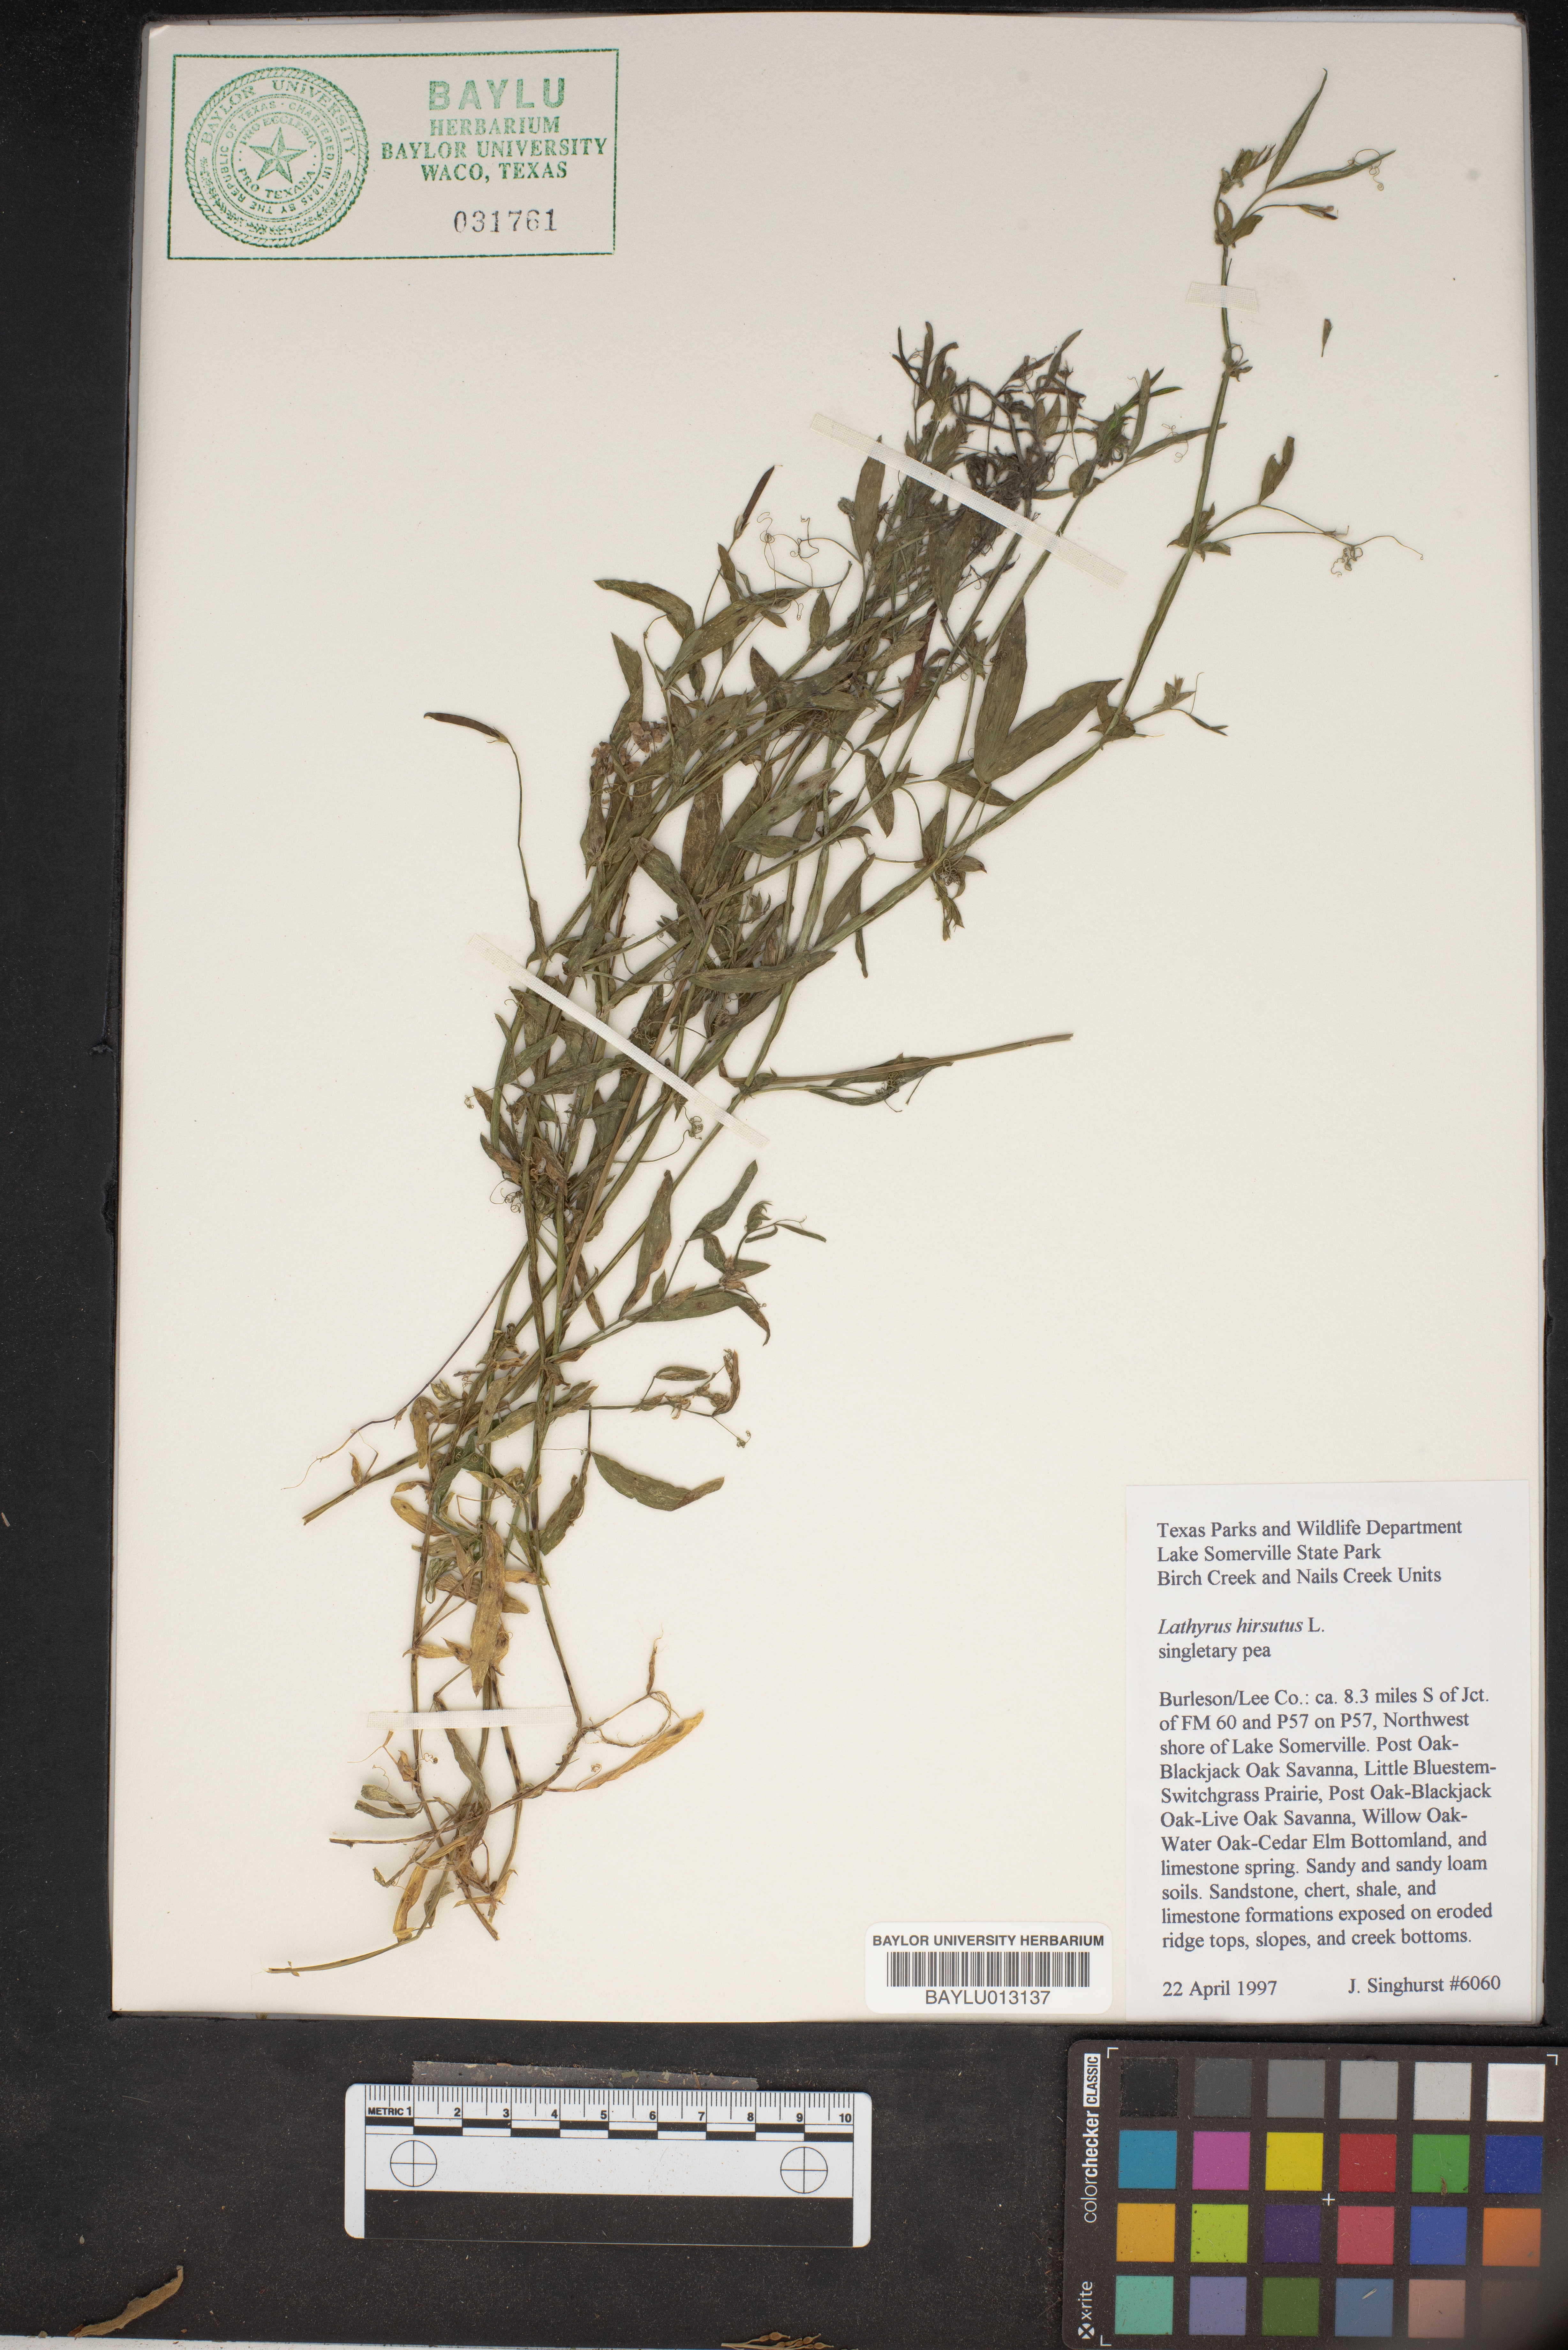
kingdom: Plantae
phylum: Tracheophyta
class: Magnoliopsida
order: Fabales
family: Fabaceae
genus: Lathyrus
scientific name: Lathyrus hirsutus
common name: Hairy vetchling
